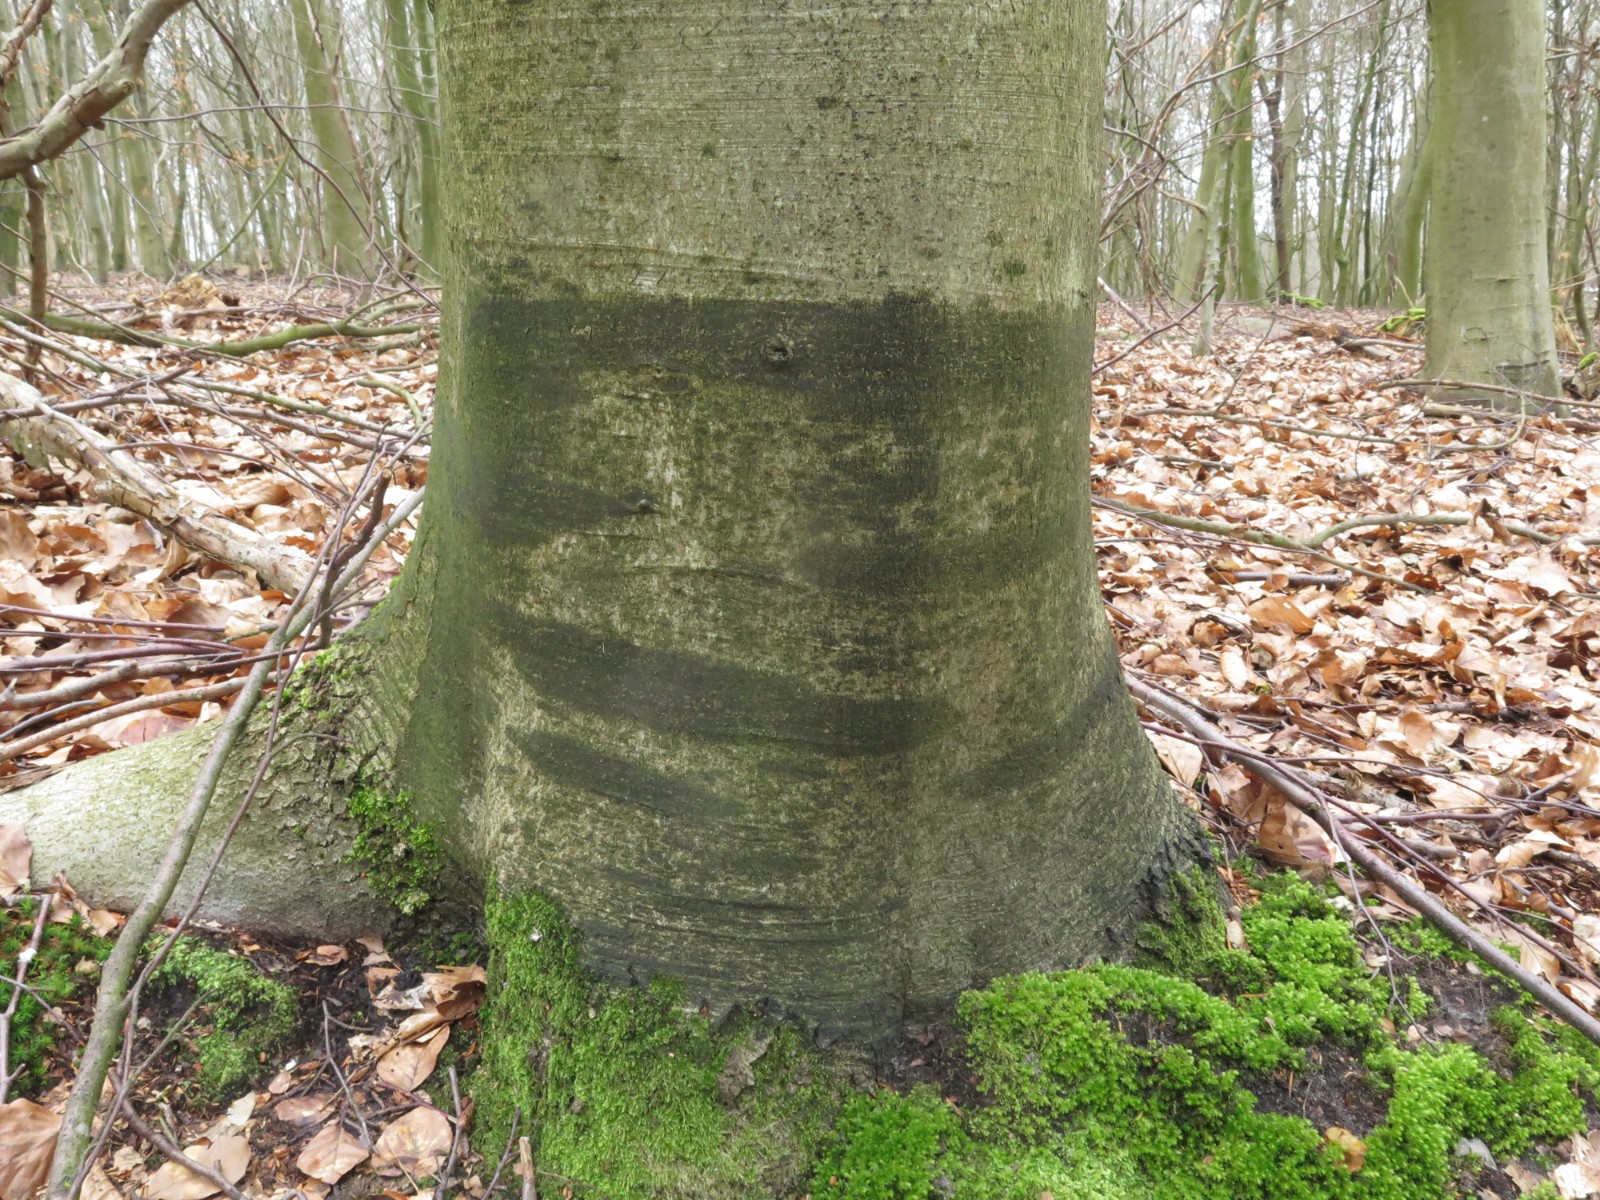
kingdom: Fungi
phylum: Ascomycota
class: Leotiomycetes
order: Rhytismatales
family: Ascodichaenaceae
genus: Ascodichaena
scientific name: Ascodichaena rugosa
